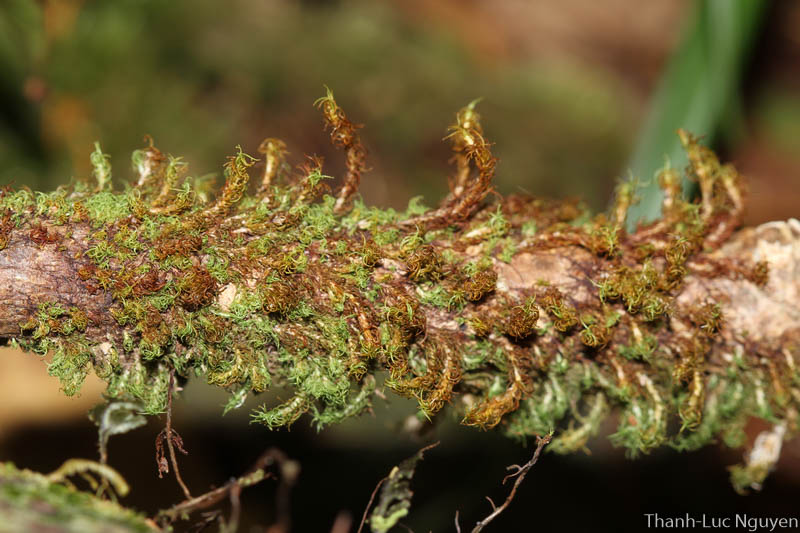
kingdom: Plantae
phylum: Bryophyta
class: Bryopsida
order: Dicranales
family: Calymperaceae
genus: Syrrhopodon
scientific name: Syrrhopodon
